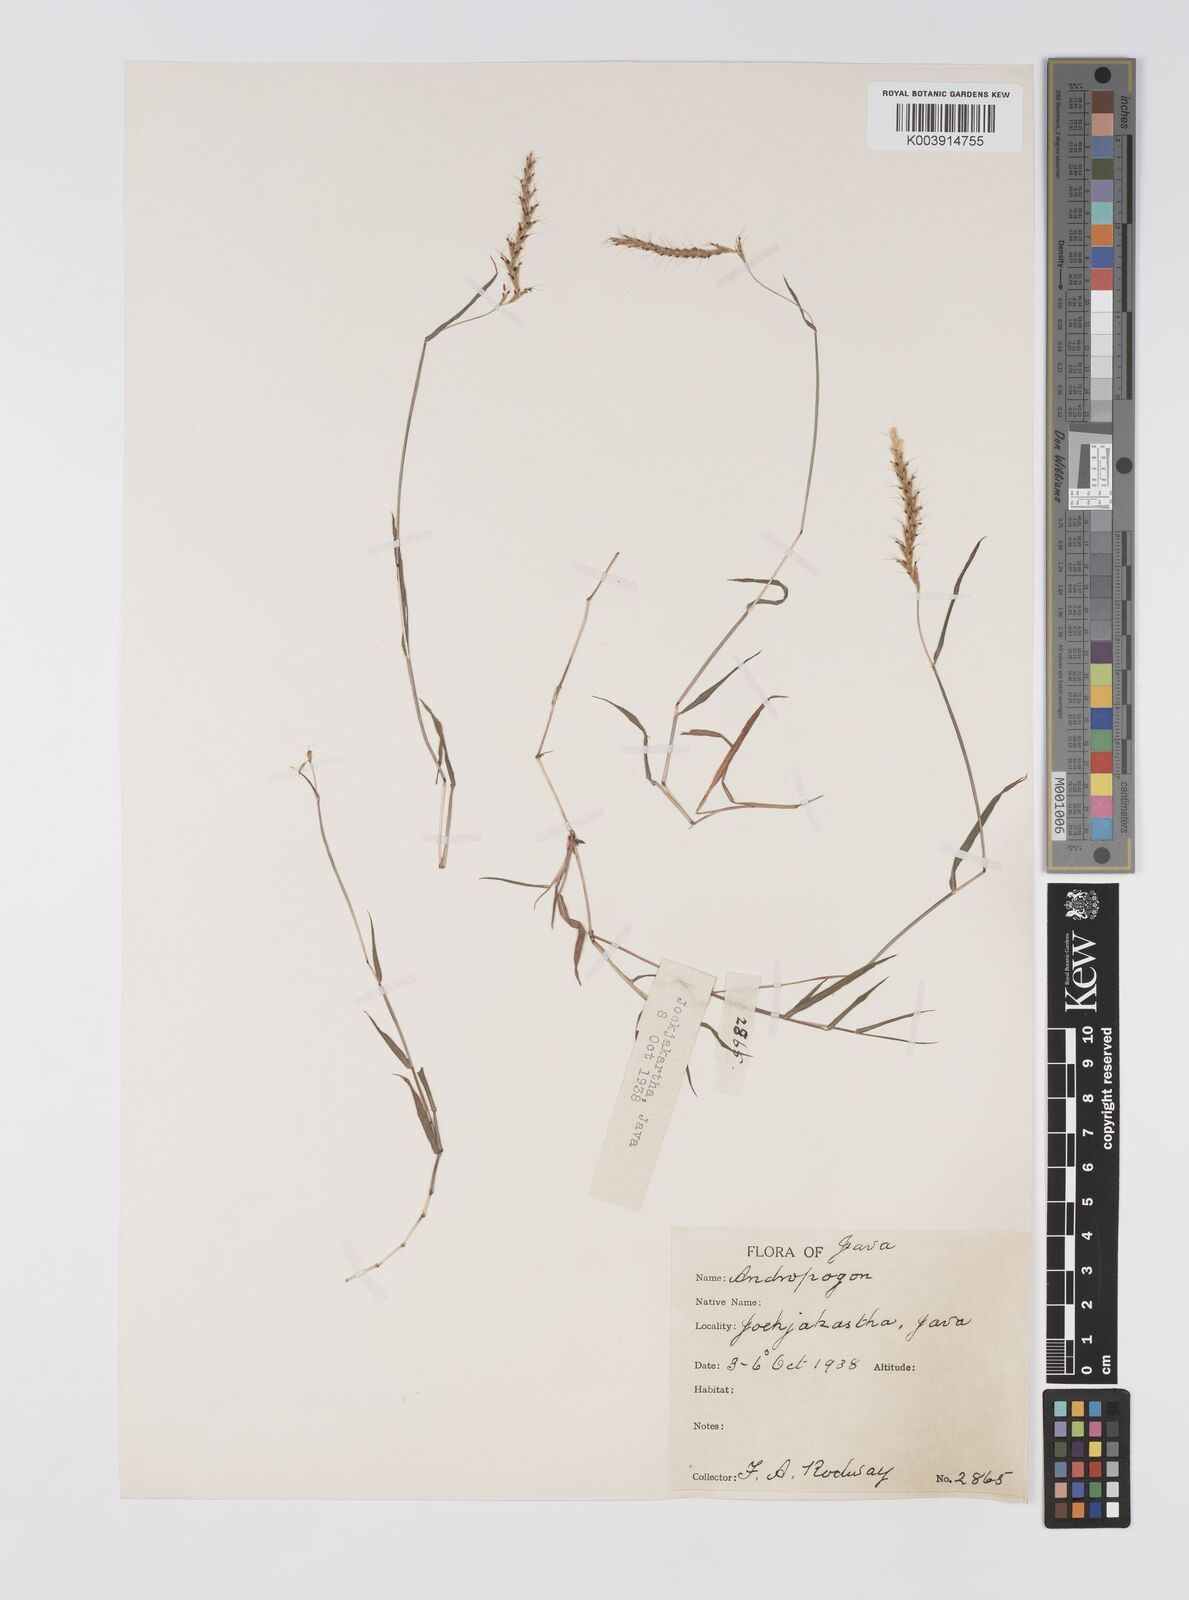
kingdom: Plantae
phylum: Tracheophyta
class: Liliopsida
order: Poales
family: Poaceae
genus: Polytrias
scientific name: Polytrias
